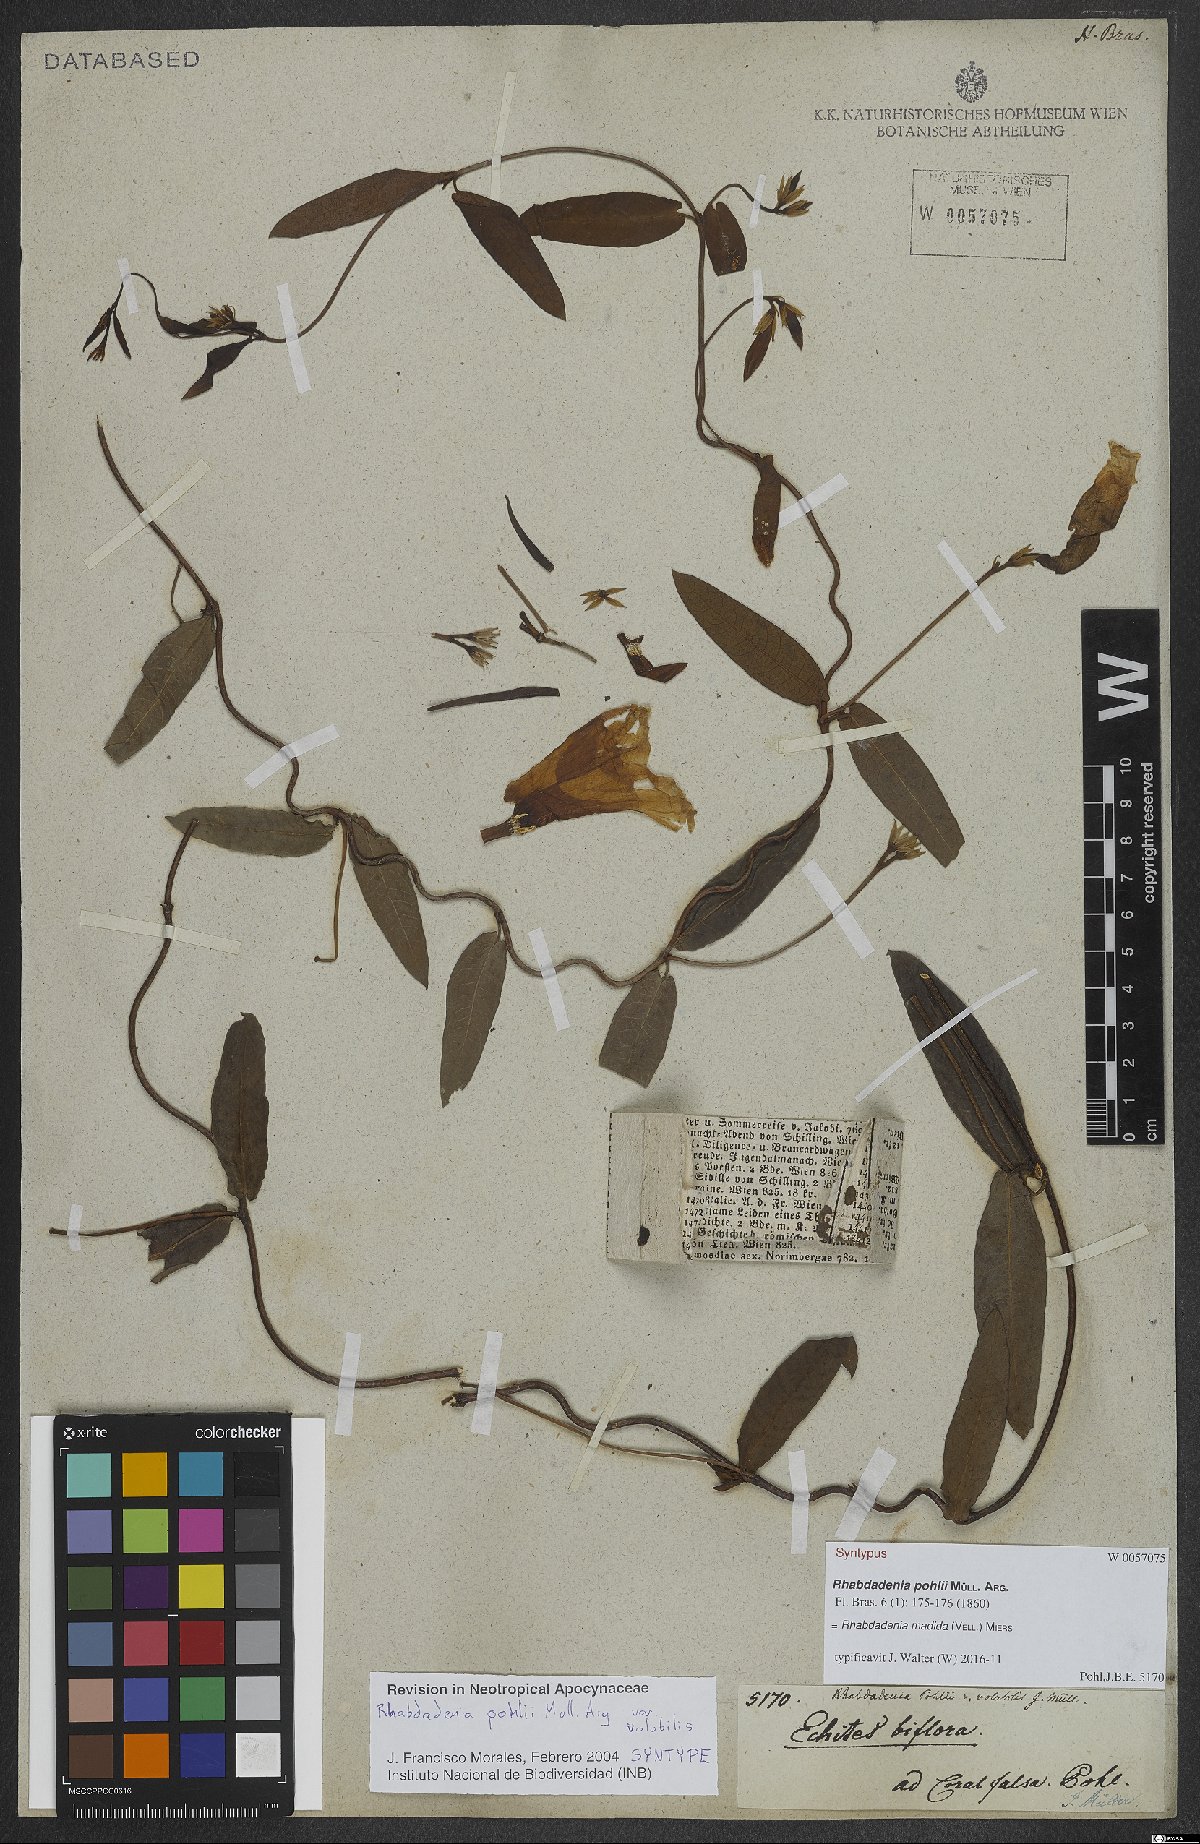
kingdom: Plantae
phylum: Tracheophyta
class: Magnoliopsida
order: Gentianales
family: Apocynaceae
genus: Rhabdadenia
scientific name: Rhabdadenia madida
